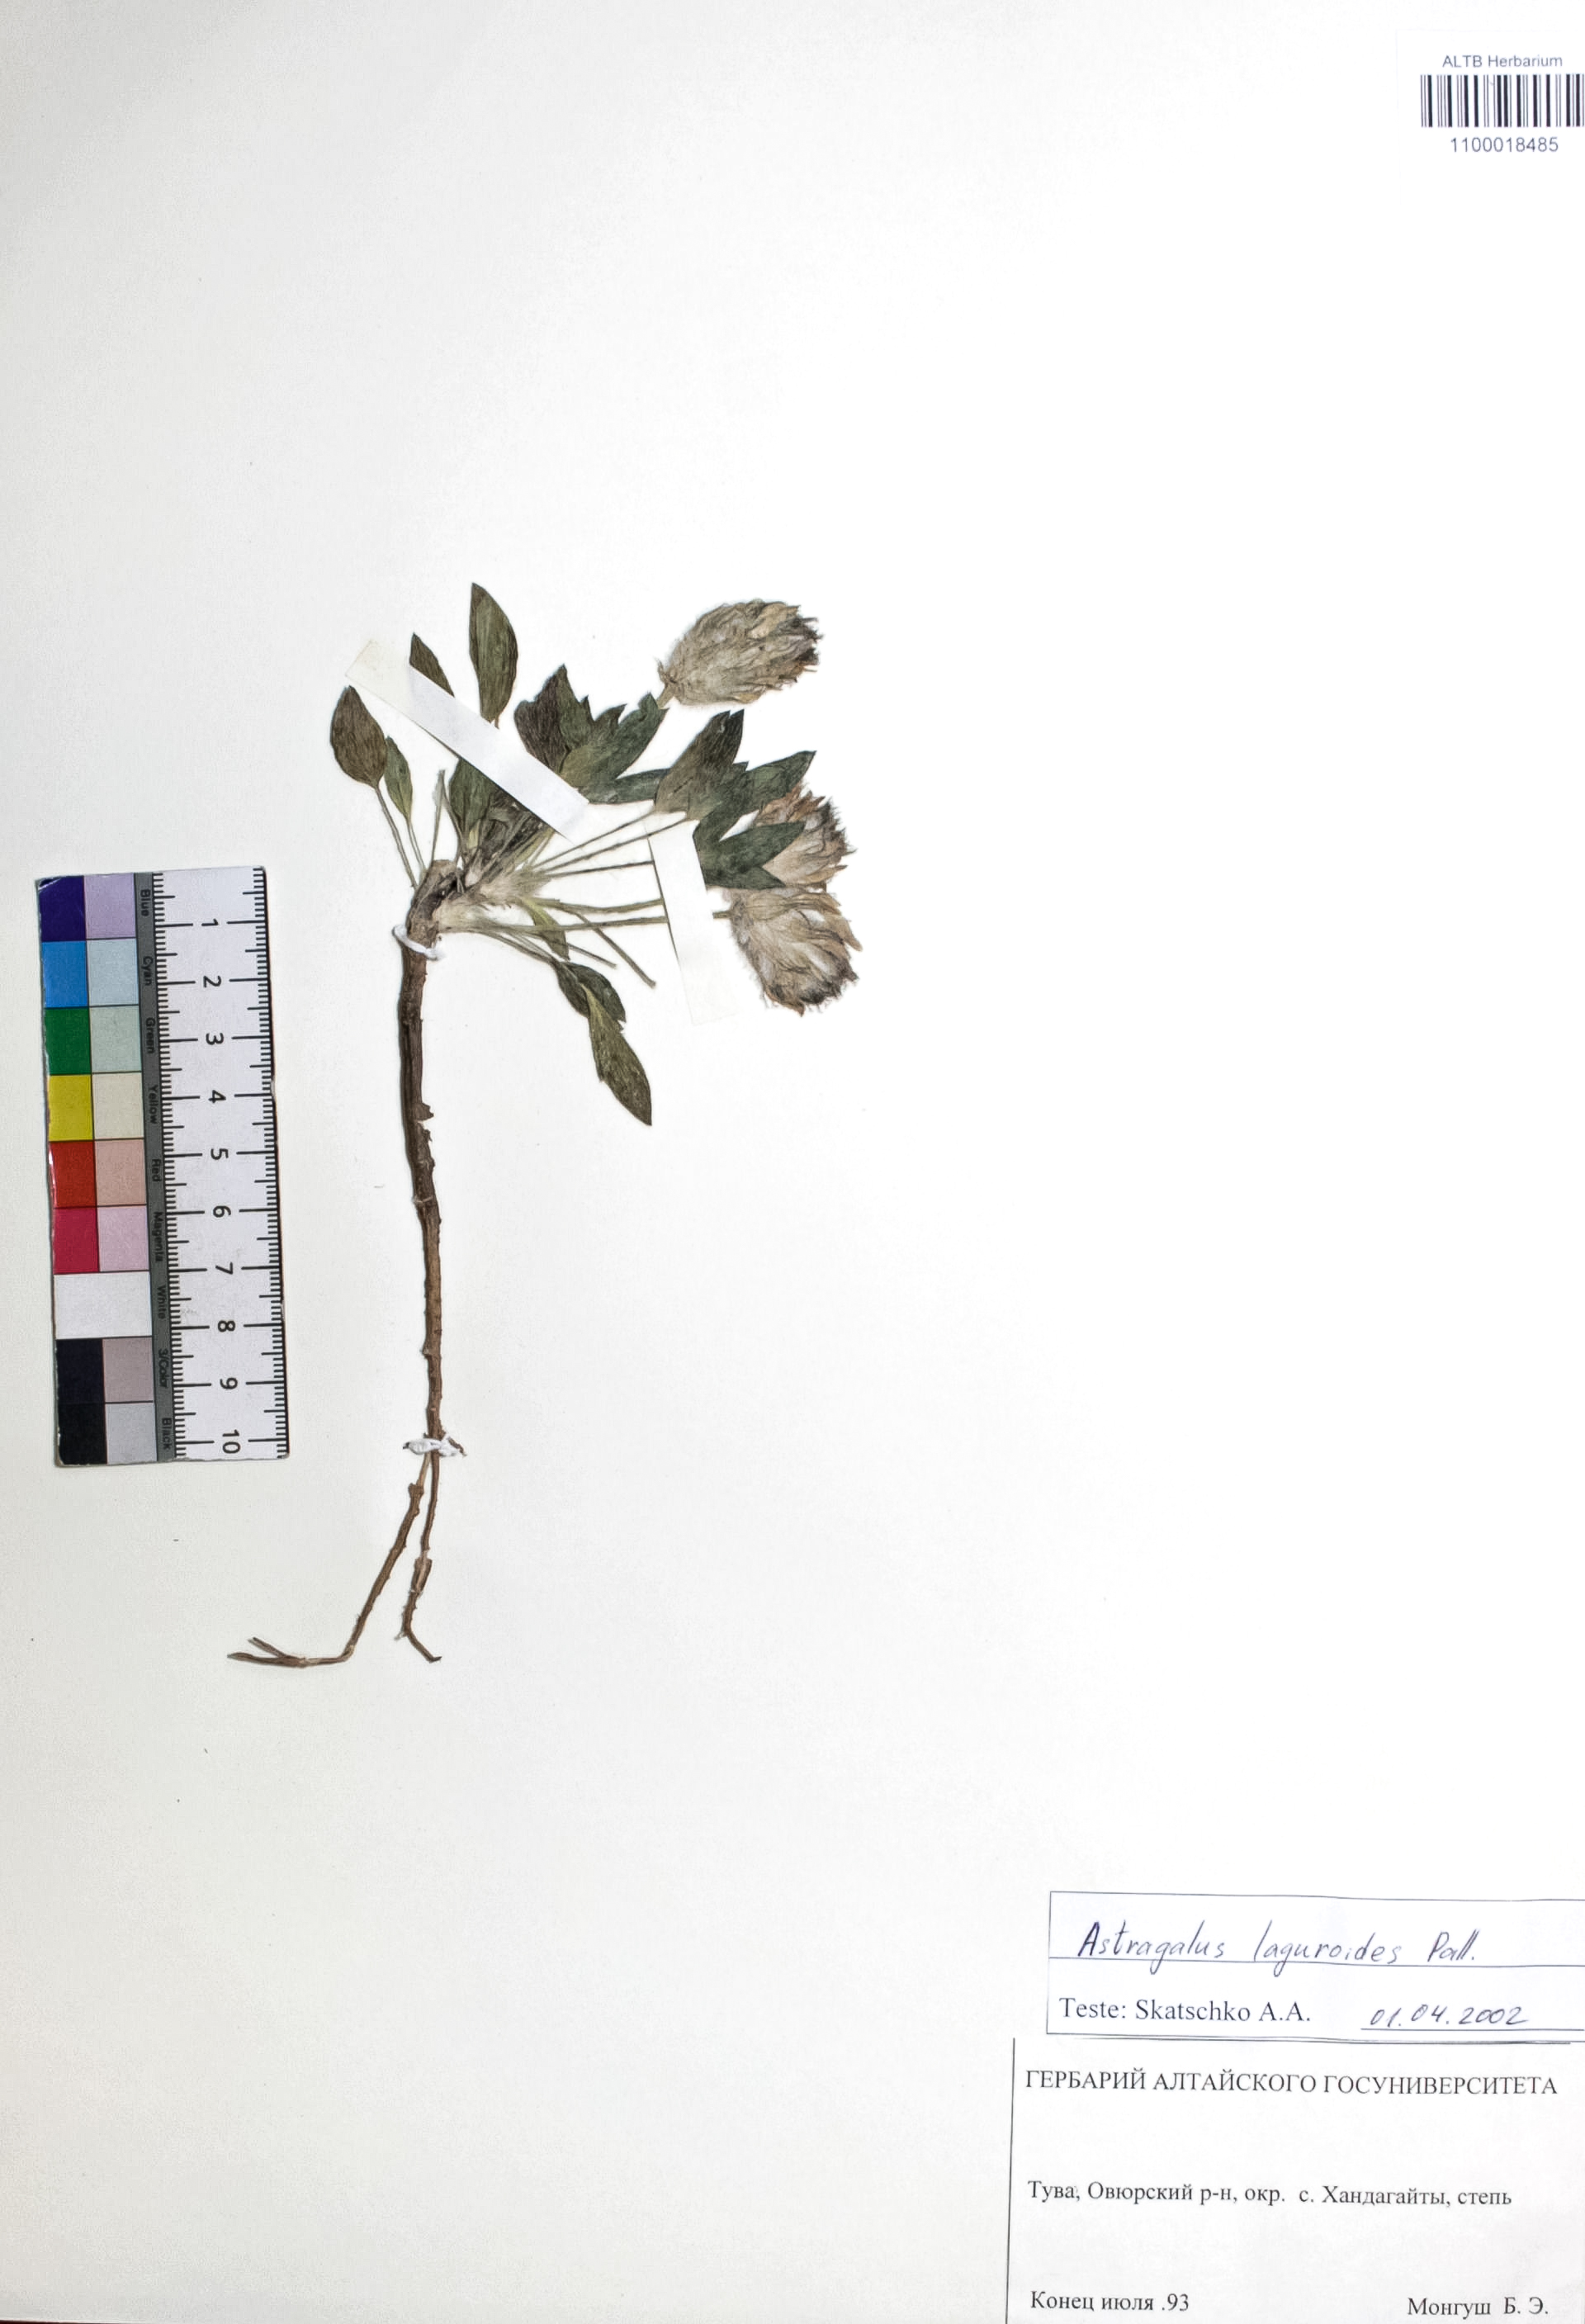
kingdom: Plantae
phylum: Tracheophyta
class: Magnoliopsida
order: Fabales
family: Fabaceae
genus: Astragalus
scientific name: Astragalus laguroides
